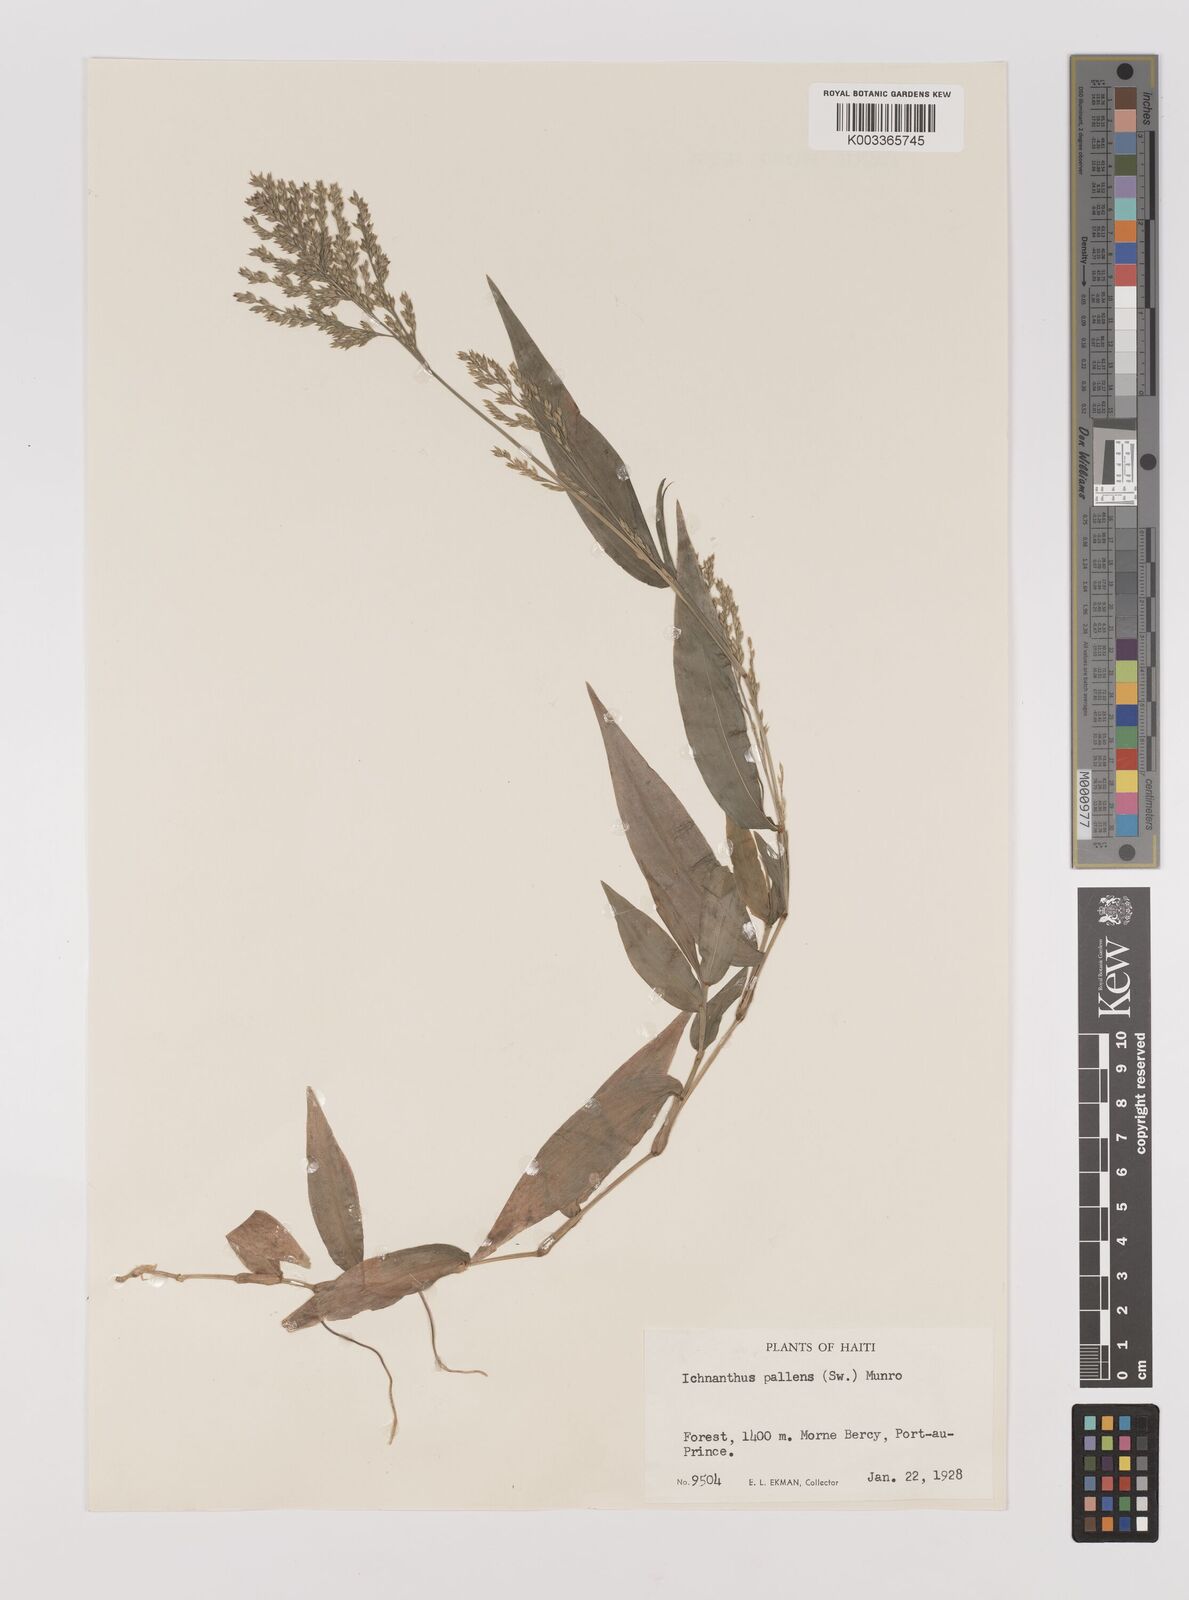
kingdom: Plantae
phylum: Tracheophyta
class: Liliopsida
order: Poales
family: Poaceae
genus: Ichnanthus
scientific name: Ichnanthus pallens
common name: Water grass
